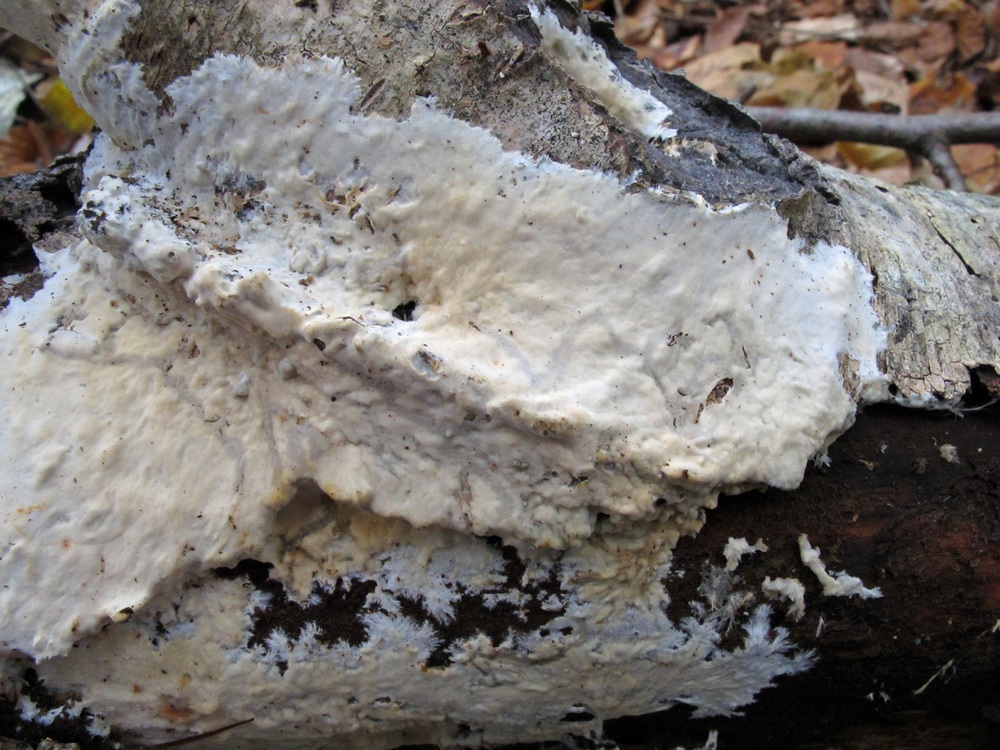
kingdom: Fungi
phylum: Basidiomycota
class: Agaricomycetes
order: Polyporales
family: Phanerochaetaceae
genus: Phanerochaete
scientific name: Phanerochaete velutina
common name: dunet randtråd
